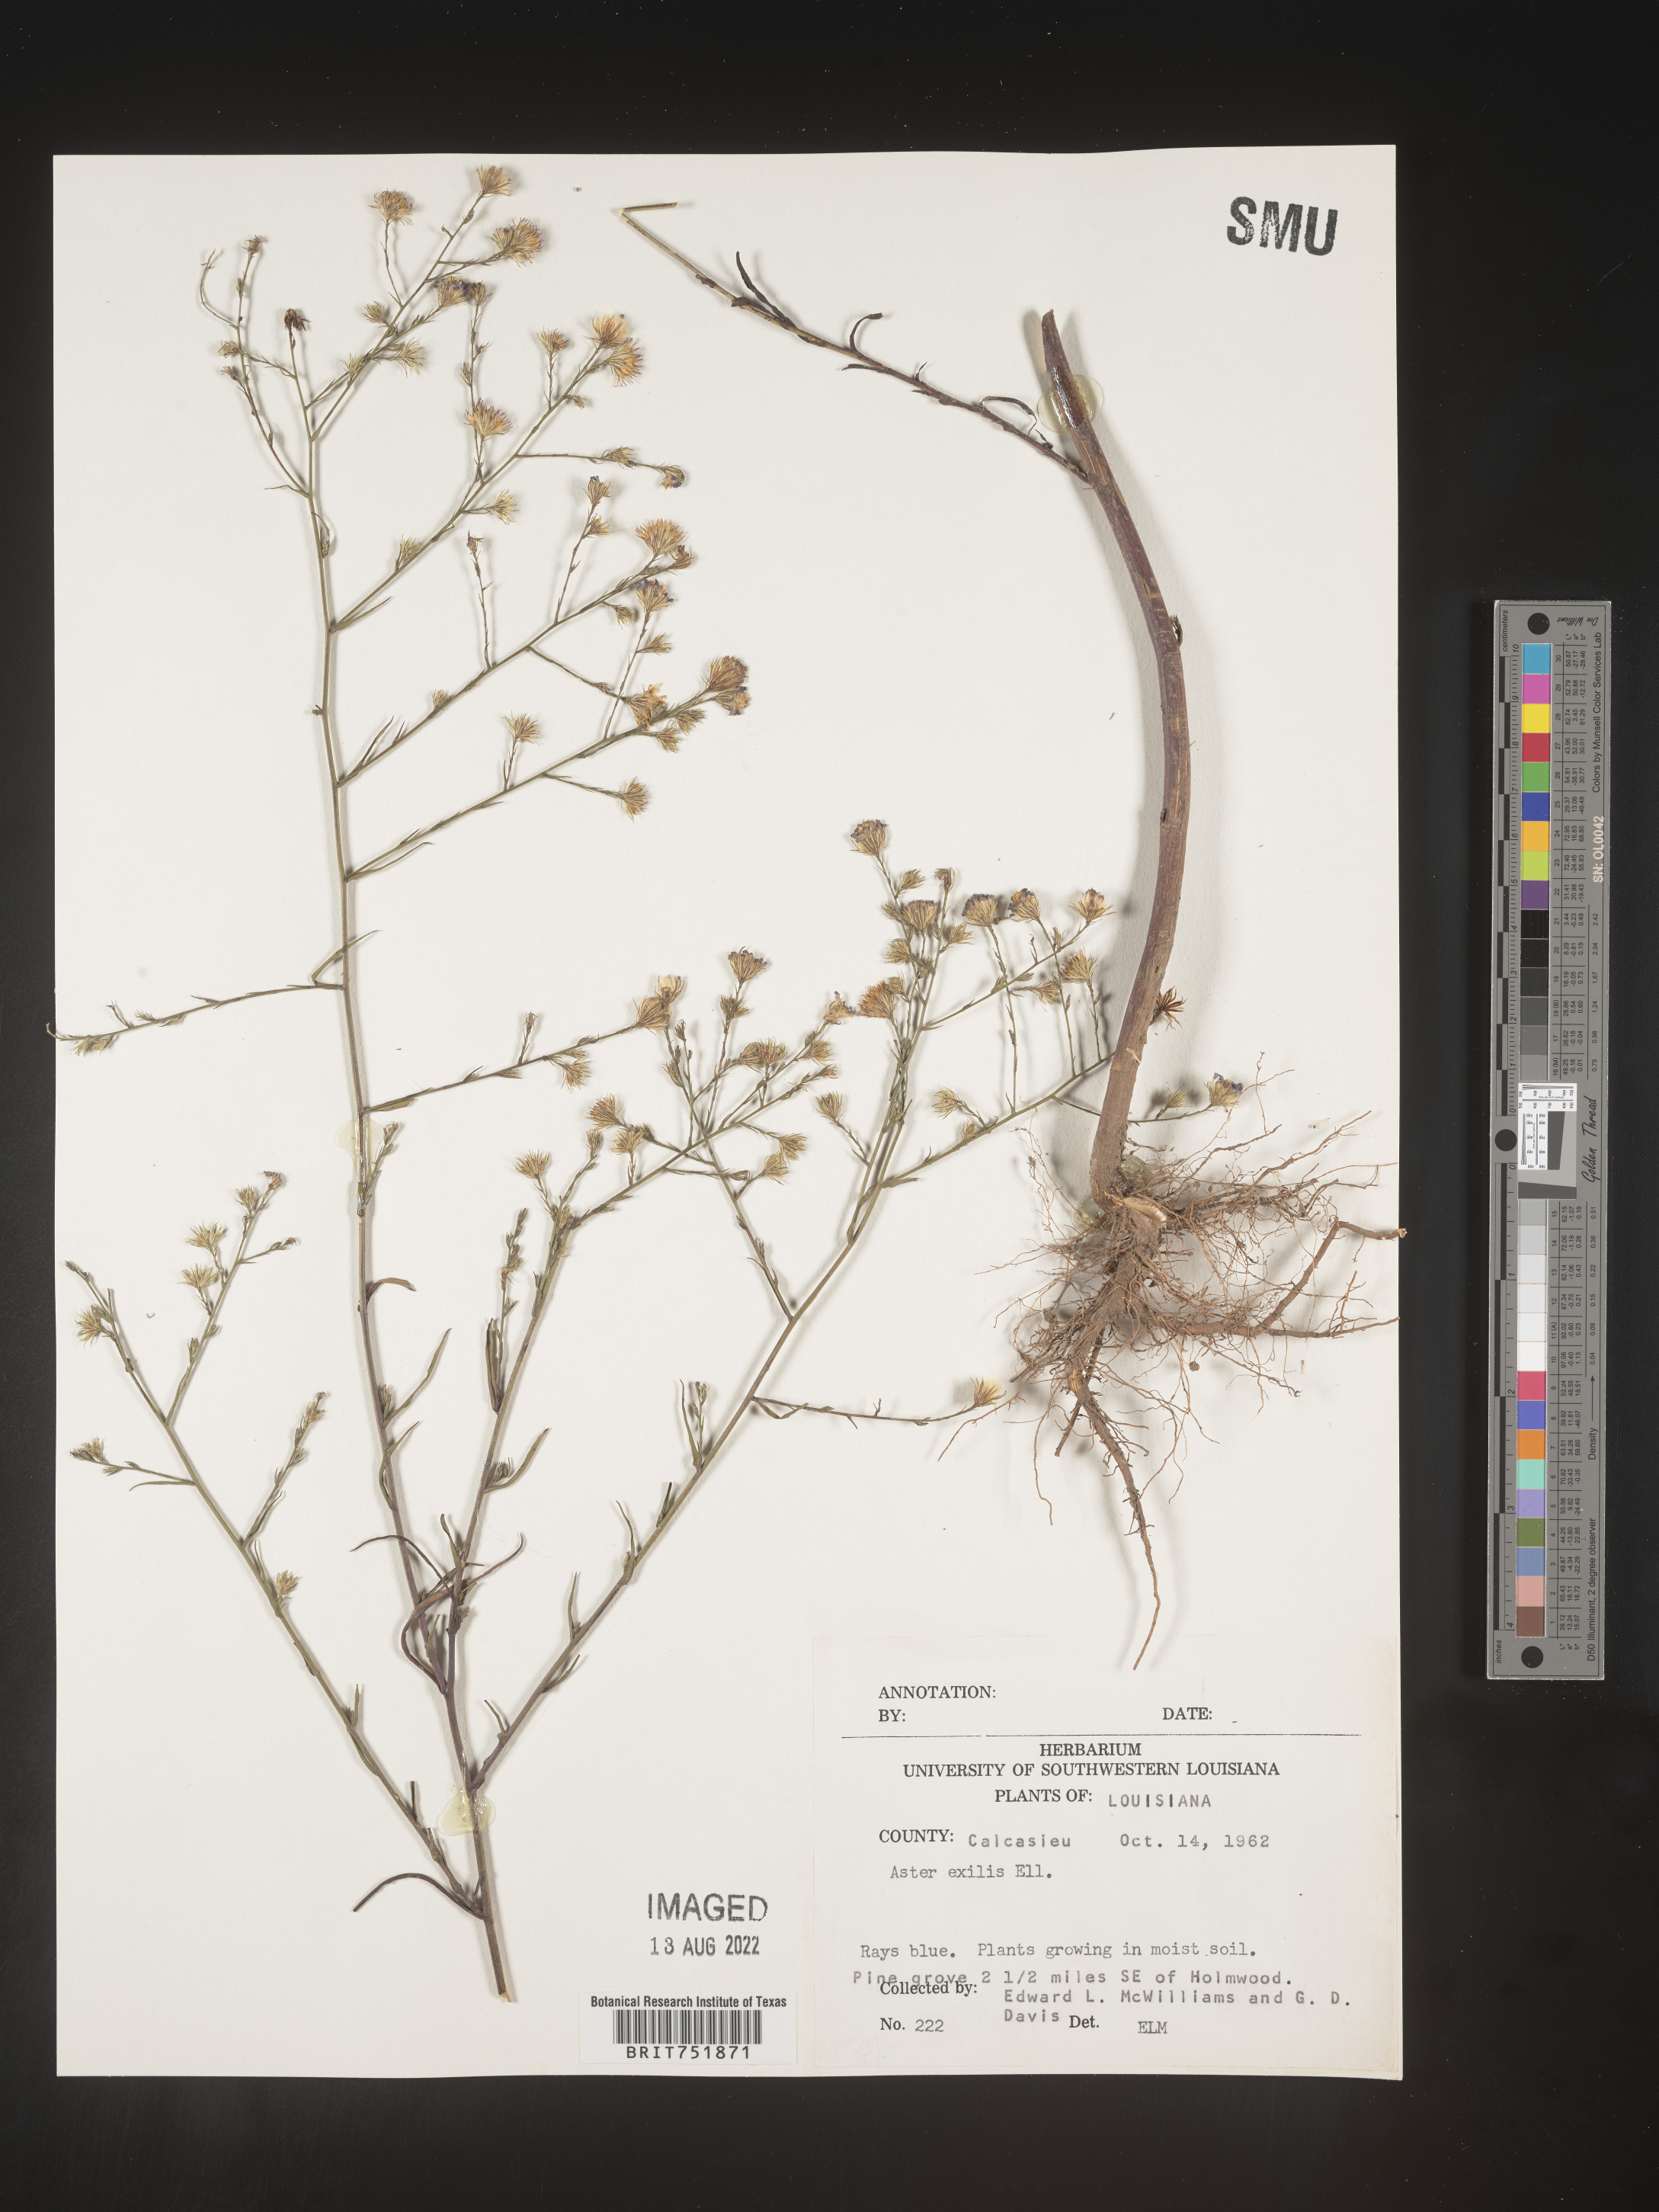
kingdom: Plantae
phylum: Tracheophyta
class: Magnoliopsida
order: Asterales
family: Asteraceae
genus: Symphyotrichum
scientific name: Symphyotrichum divaricatum
